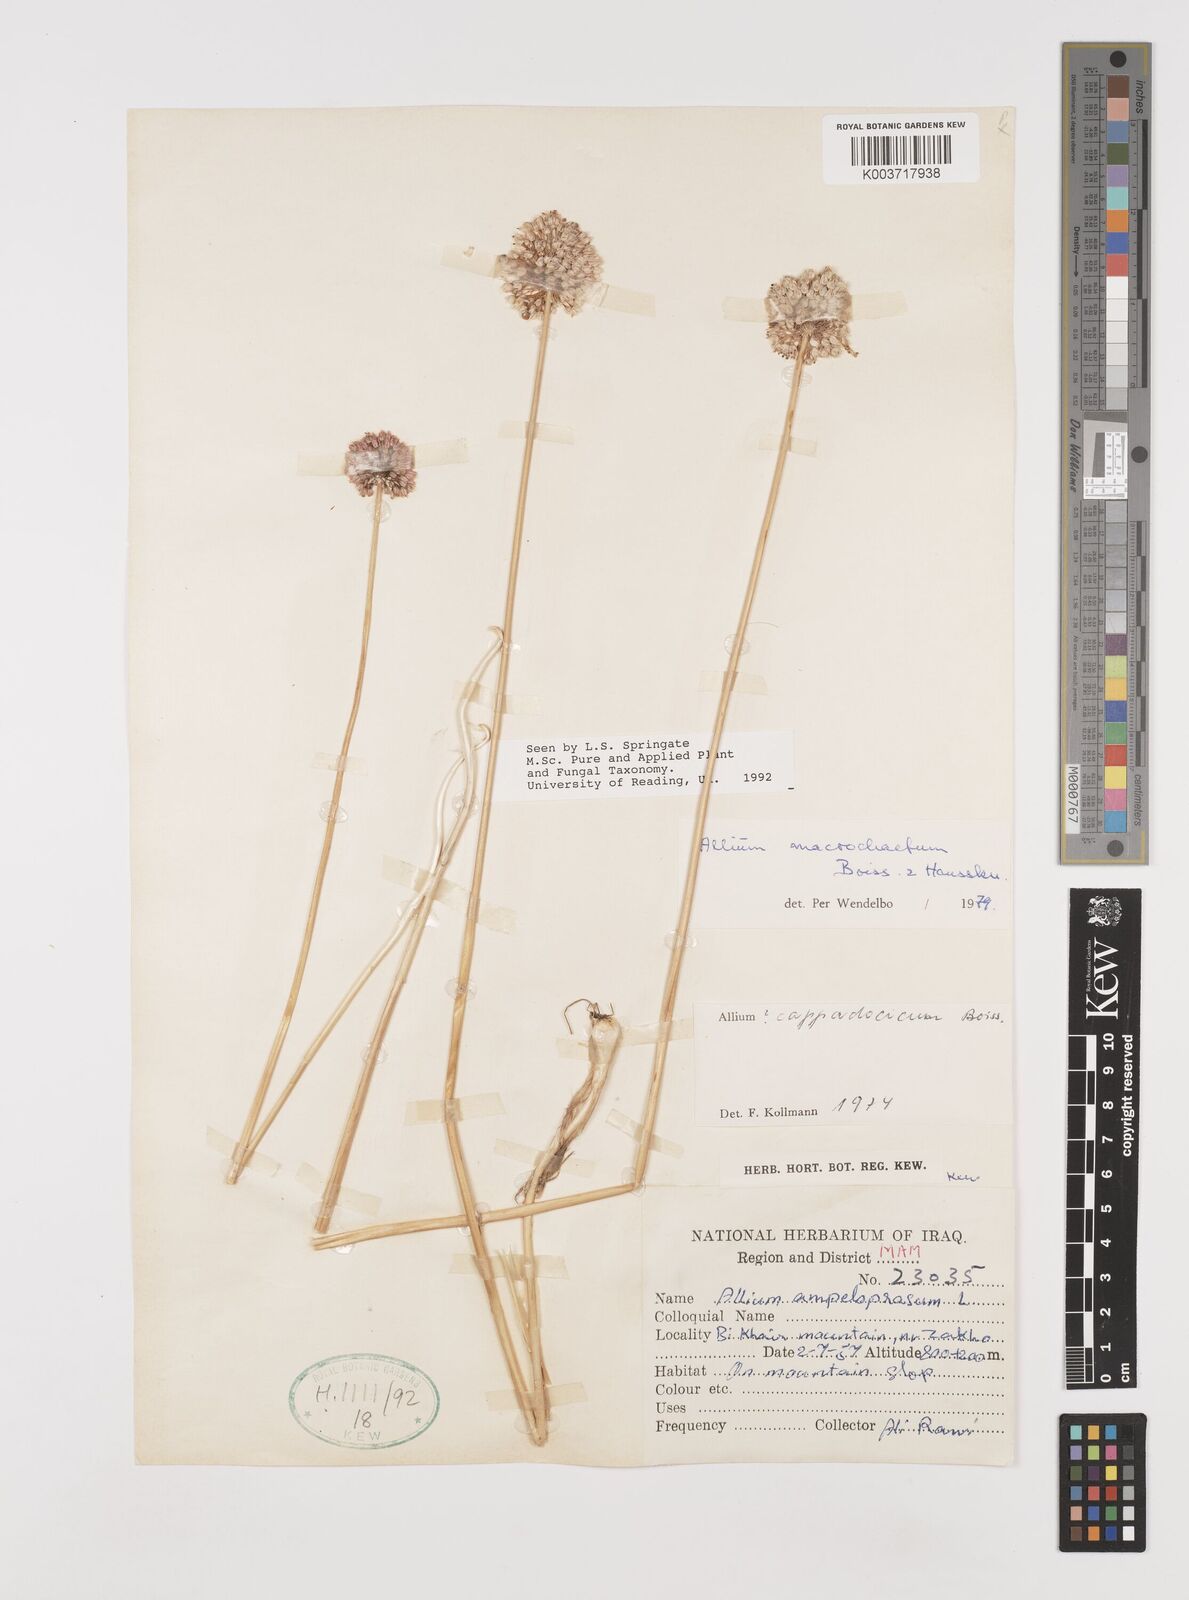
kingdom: Plantae
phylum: Tracheophyta
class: Liliopsida
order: Asparagales
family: Amaryllidaceae
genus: Allium
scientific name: Allium macrochaetum
